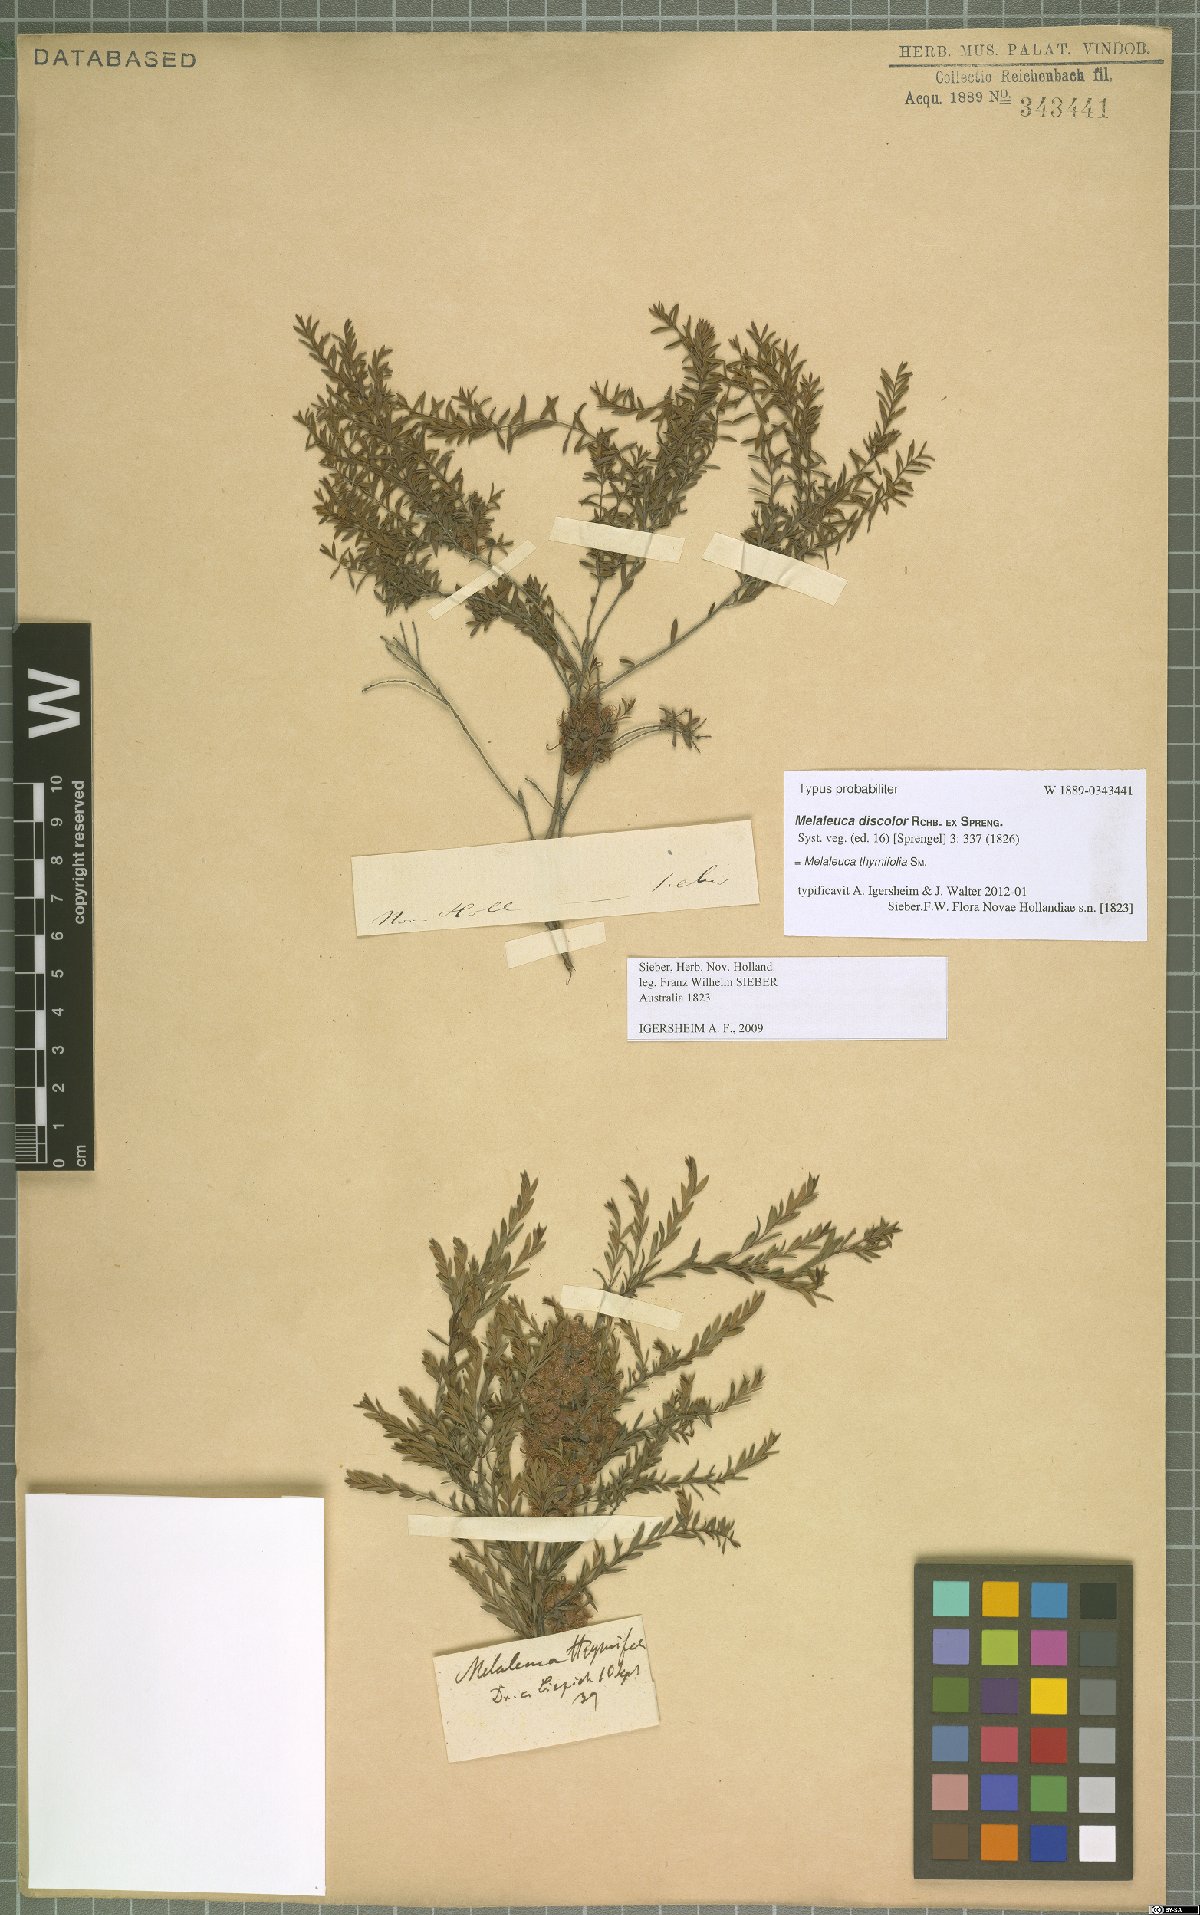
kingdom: Plantae
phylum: Tracheophyta
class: Magnoliopsida
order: Myrtales
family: Myrtaceae
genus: Melaleuca
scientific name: Melaleuca thymifolia
